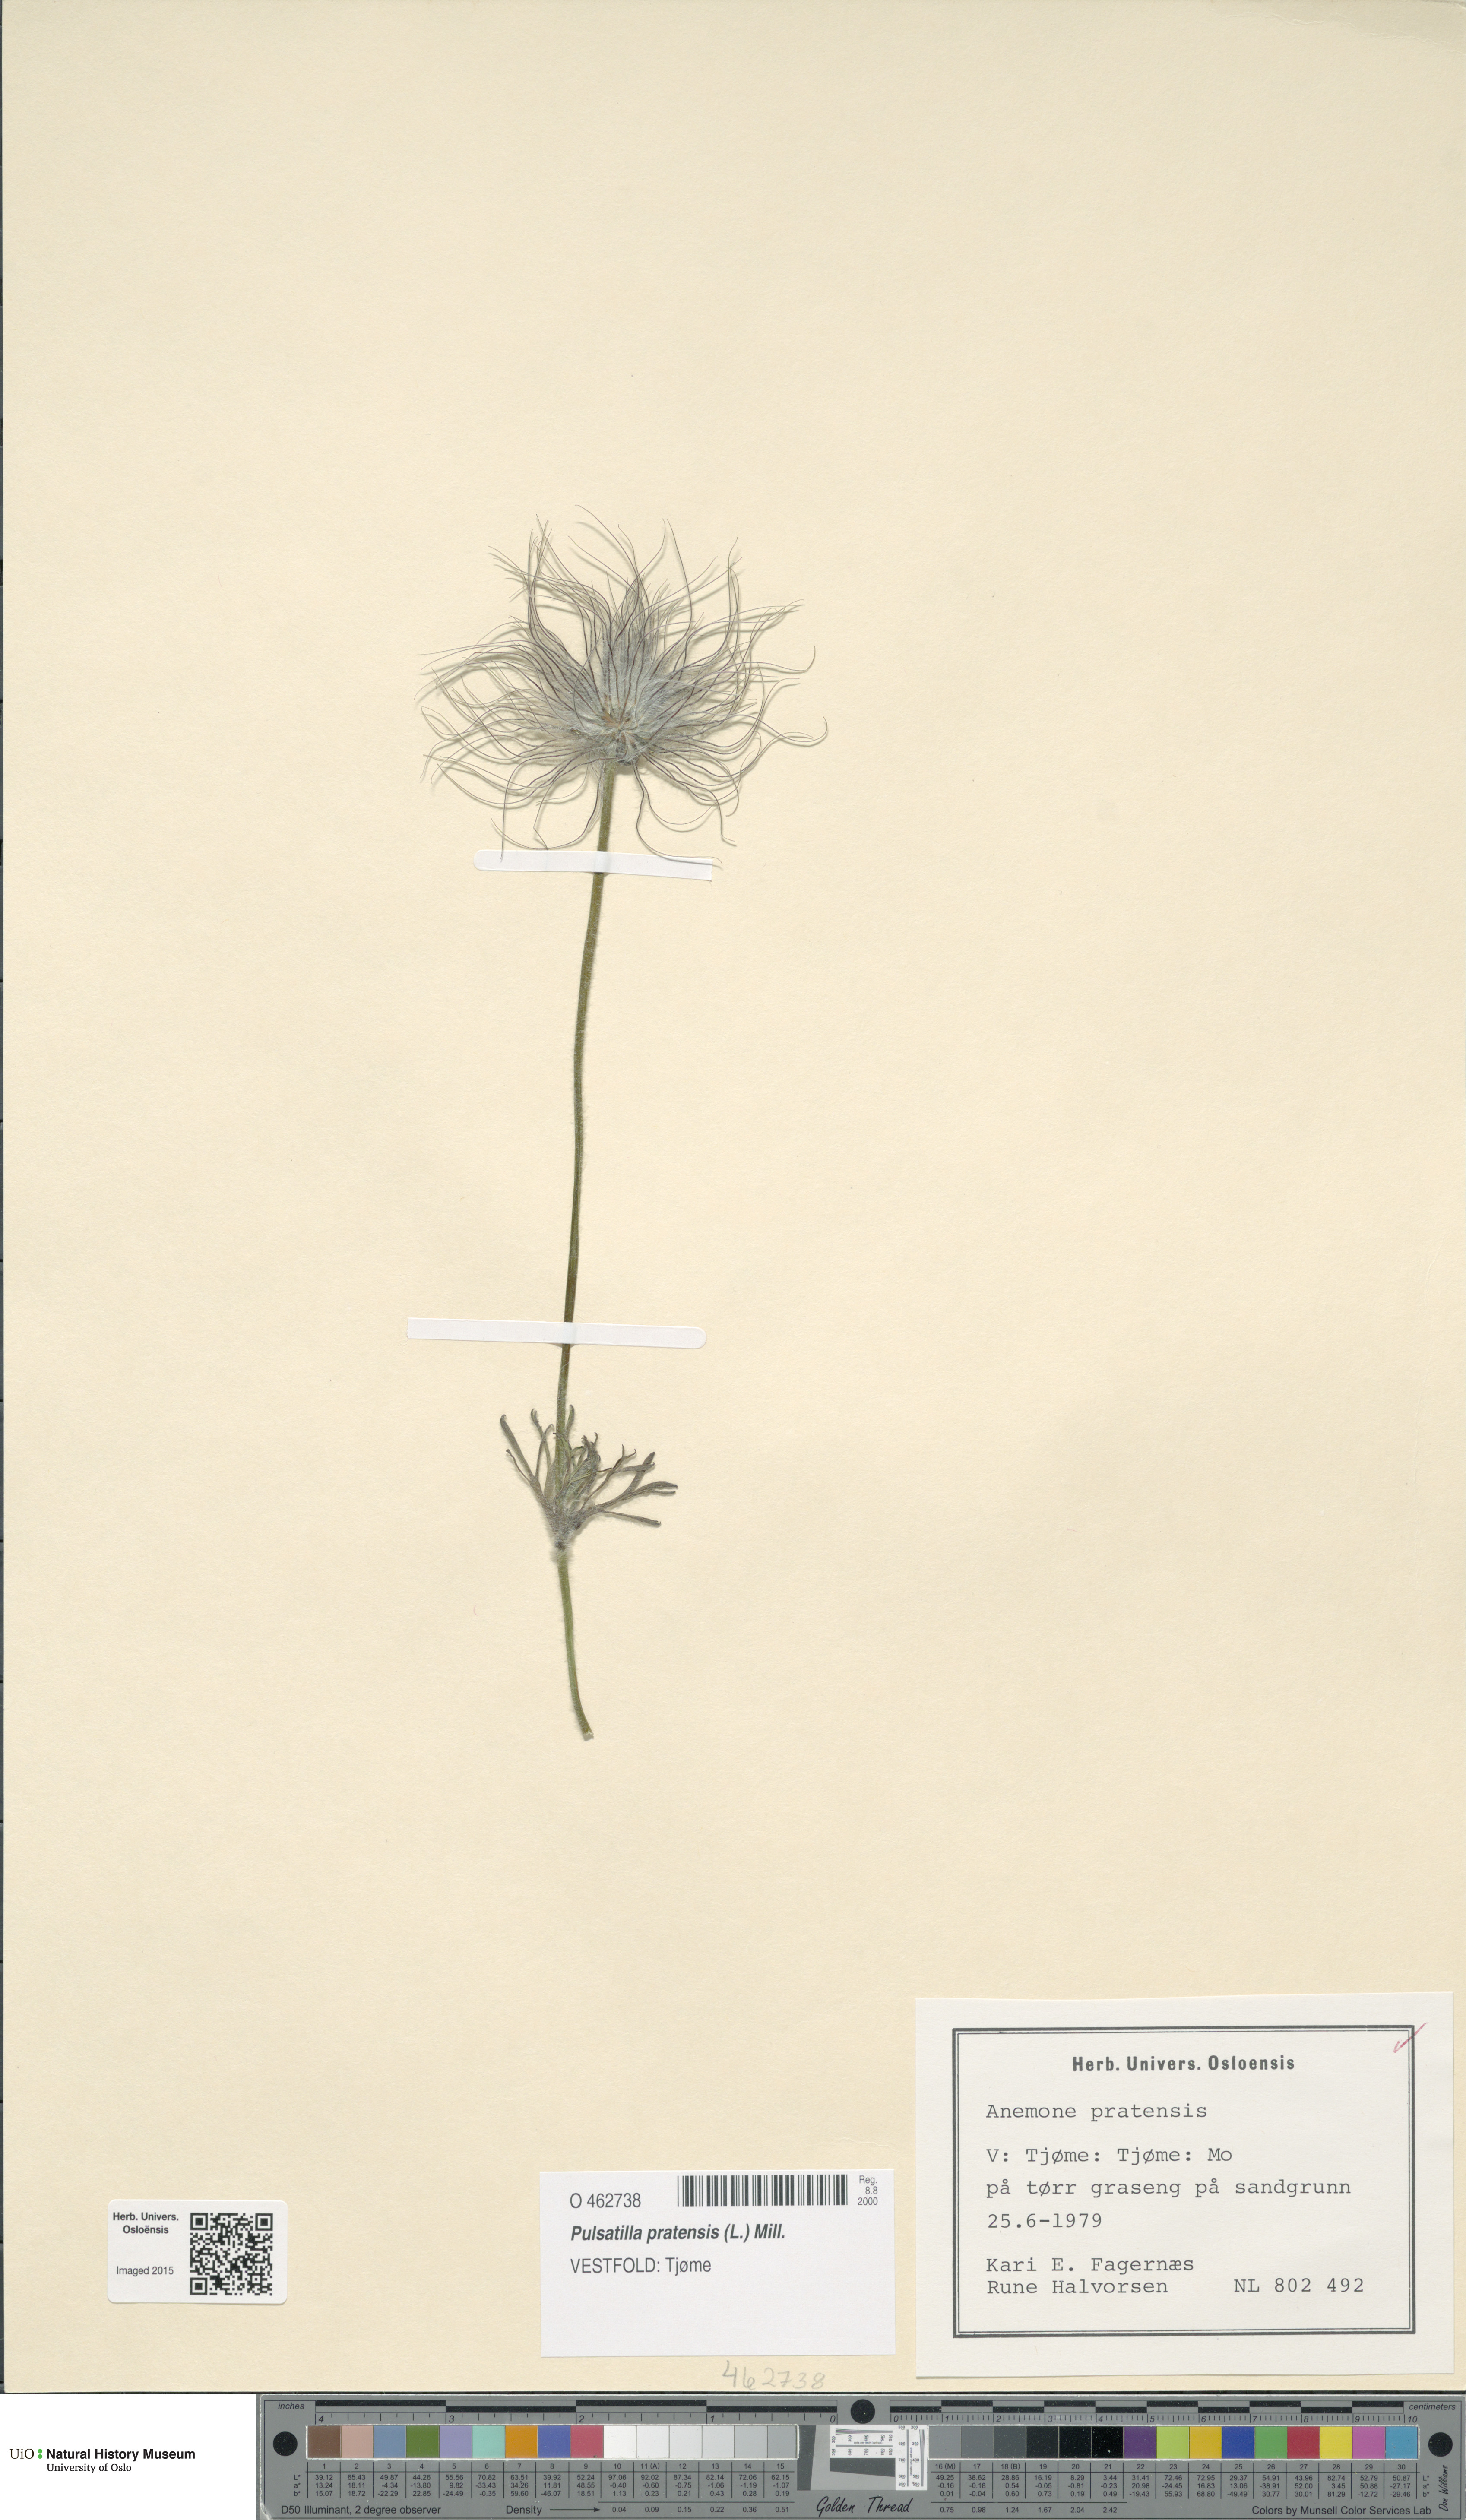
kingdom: Plantae
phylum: Tracheophyta
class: Magnoliopsida
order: Ranunculales
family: Ranunculaceae
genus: Pulsatilla
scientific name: Pulsatilla pratensis
